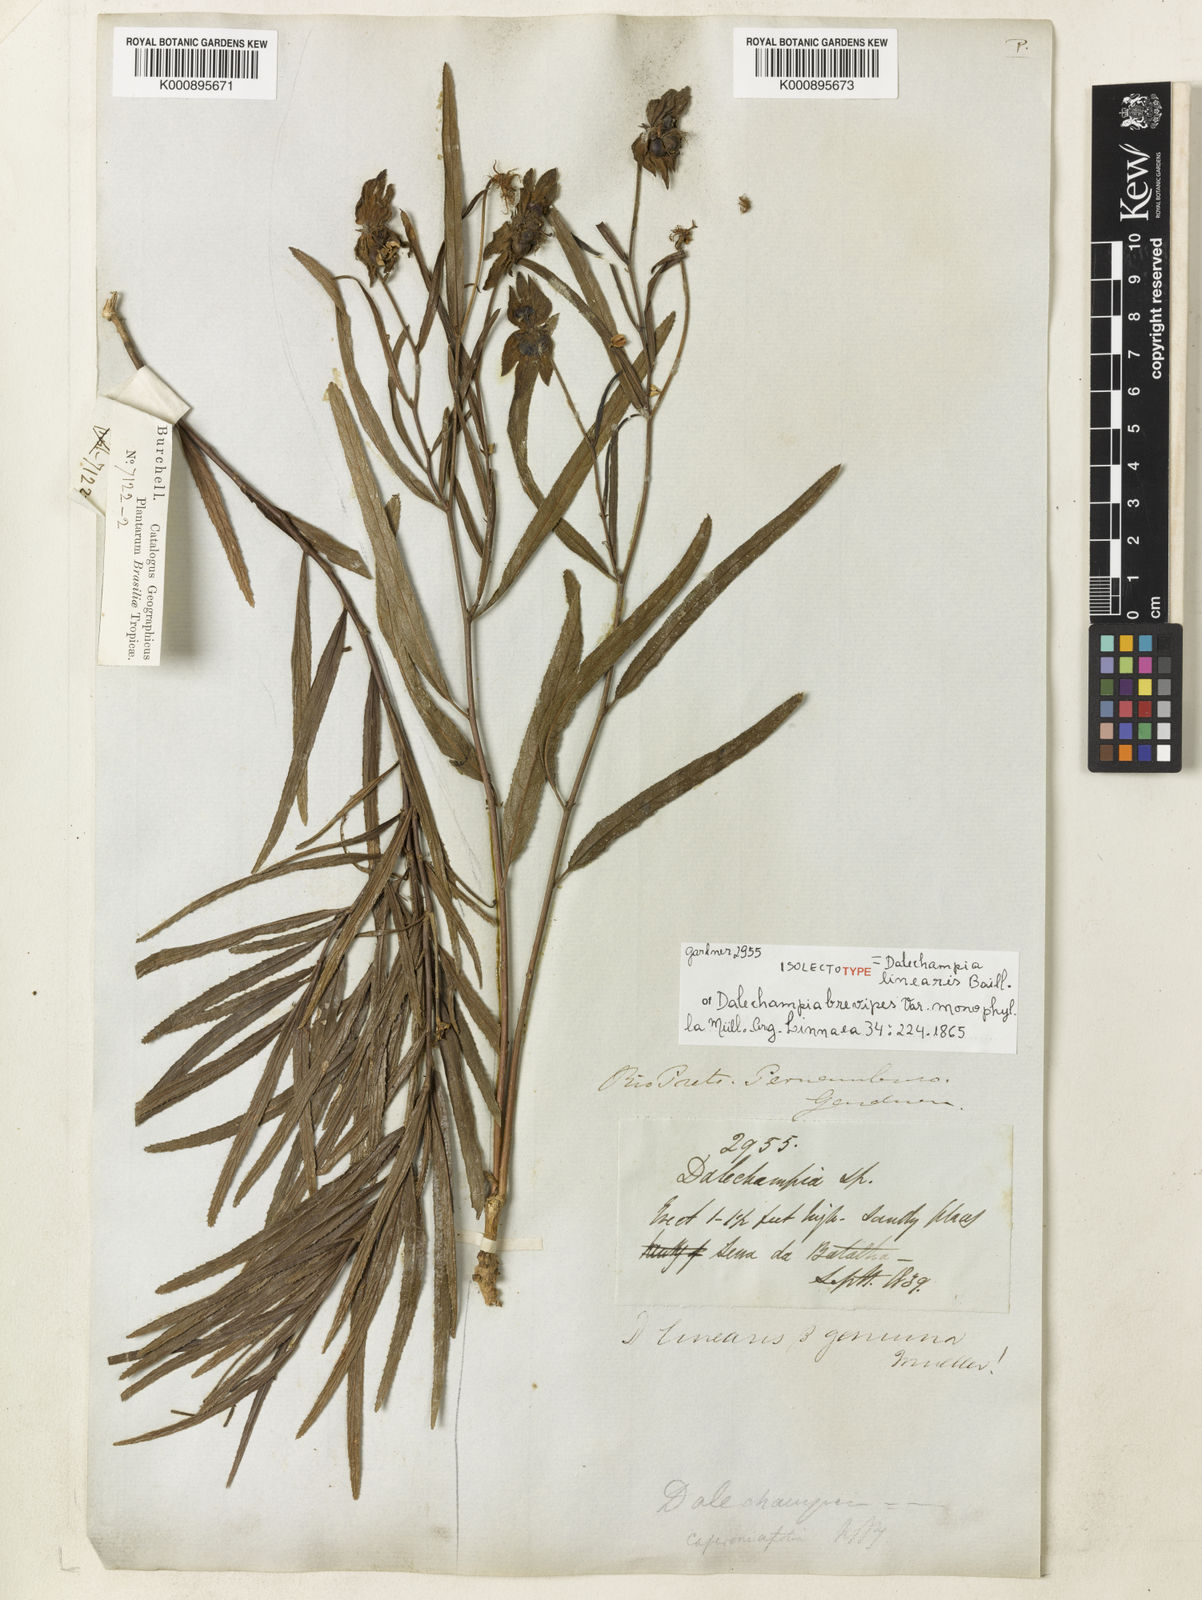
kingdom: Plantae
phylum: Tracheophyta
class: Magnoliopsida
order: Malpighiales
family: Euphorbiaceae
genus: Dalechampia
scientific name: Dalechampia linearis
